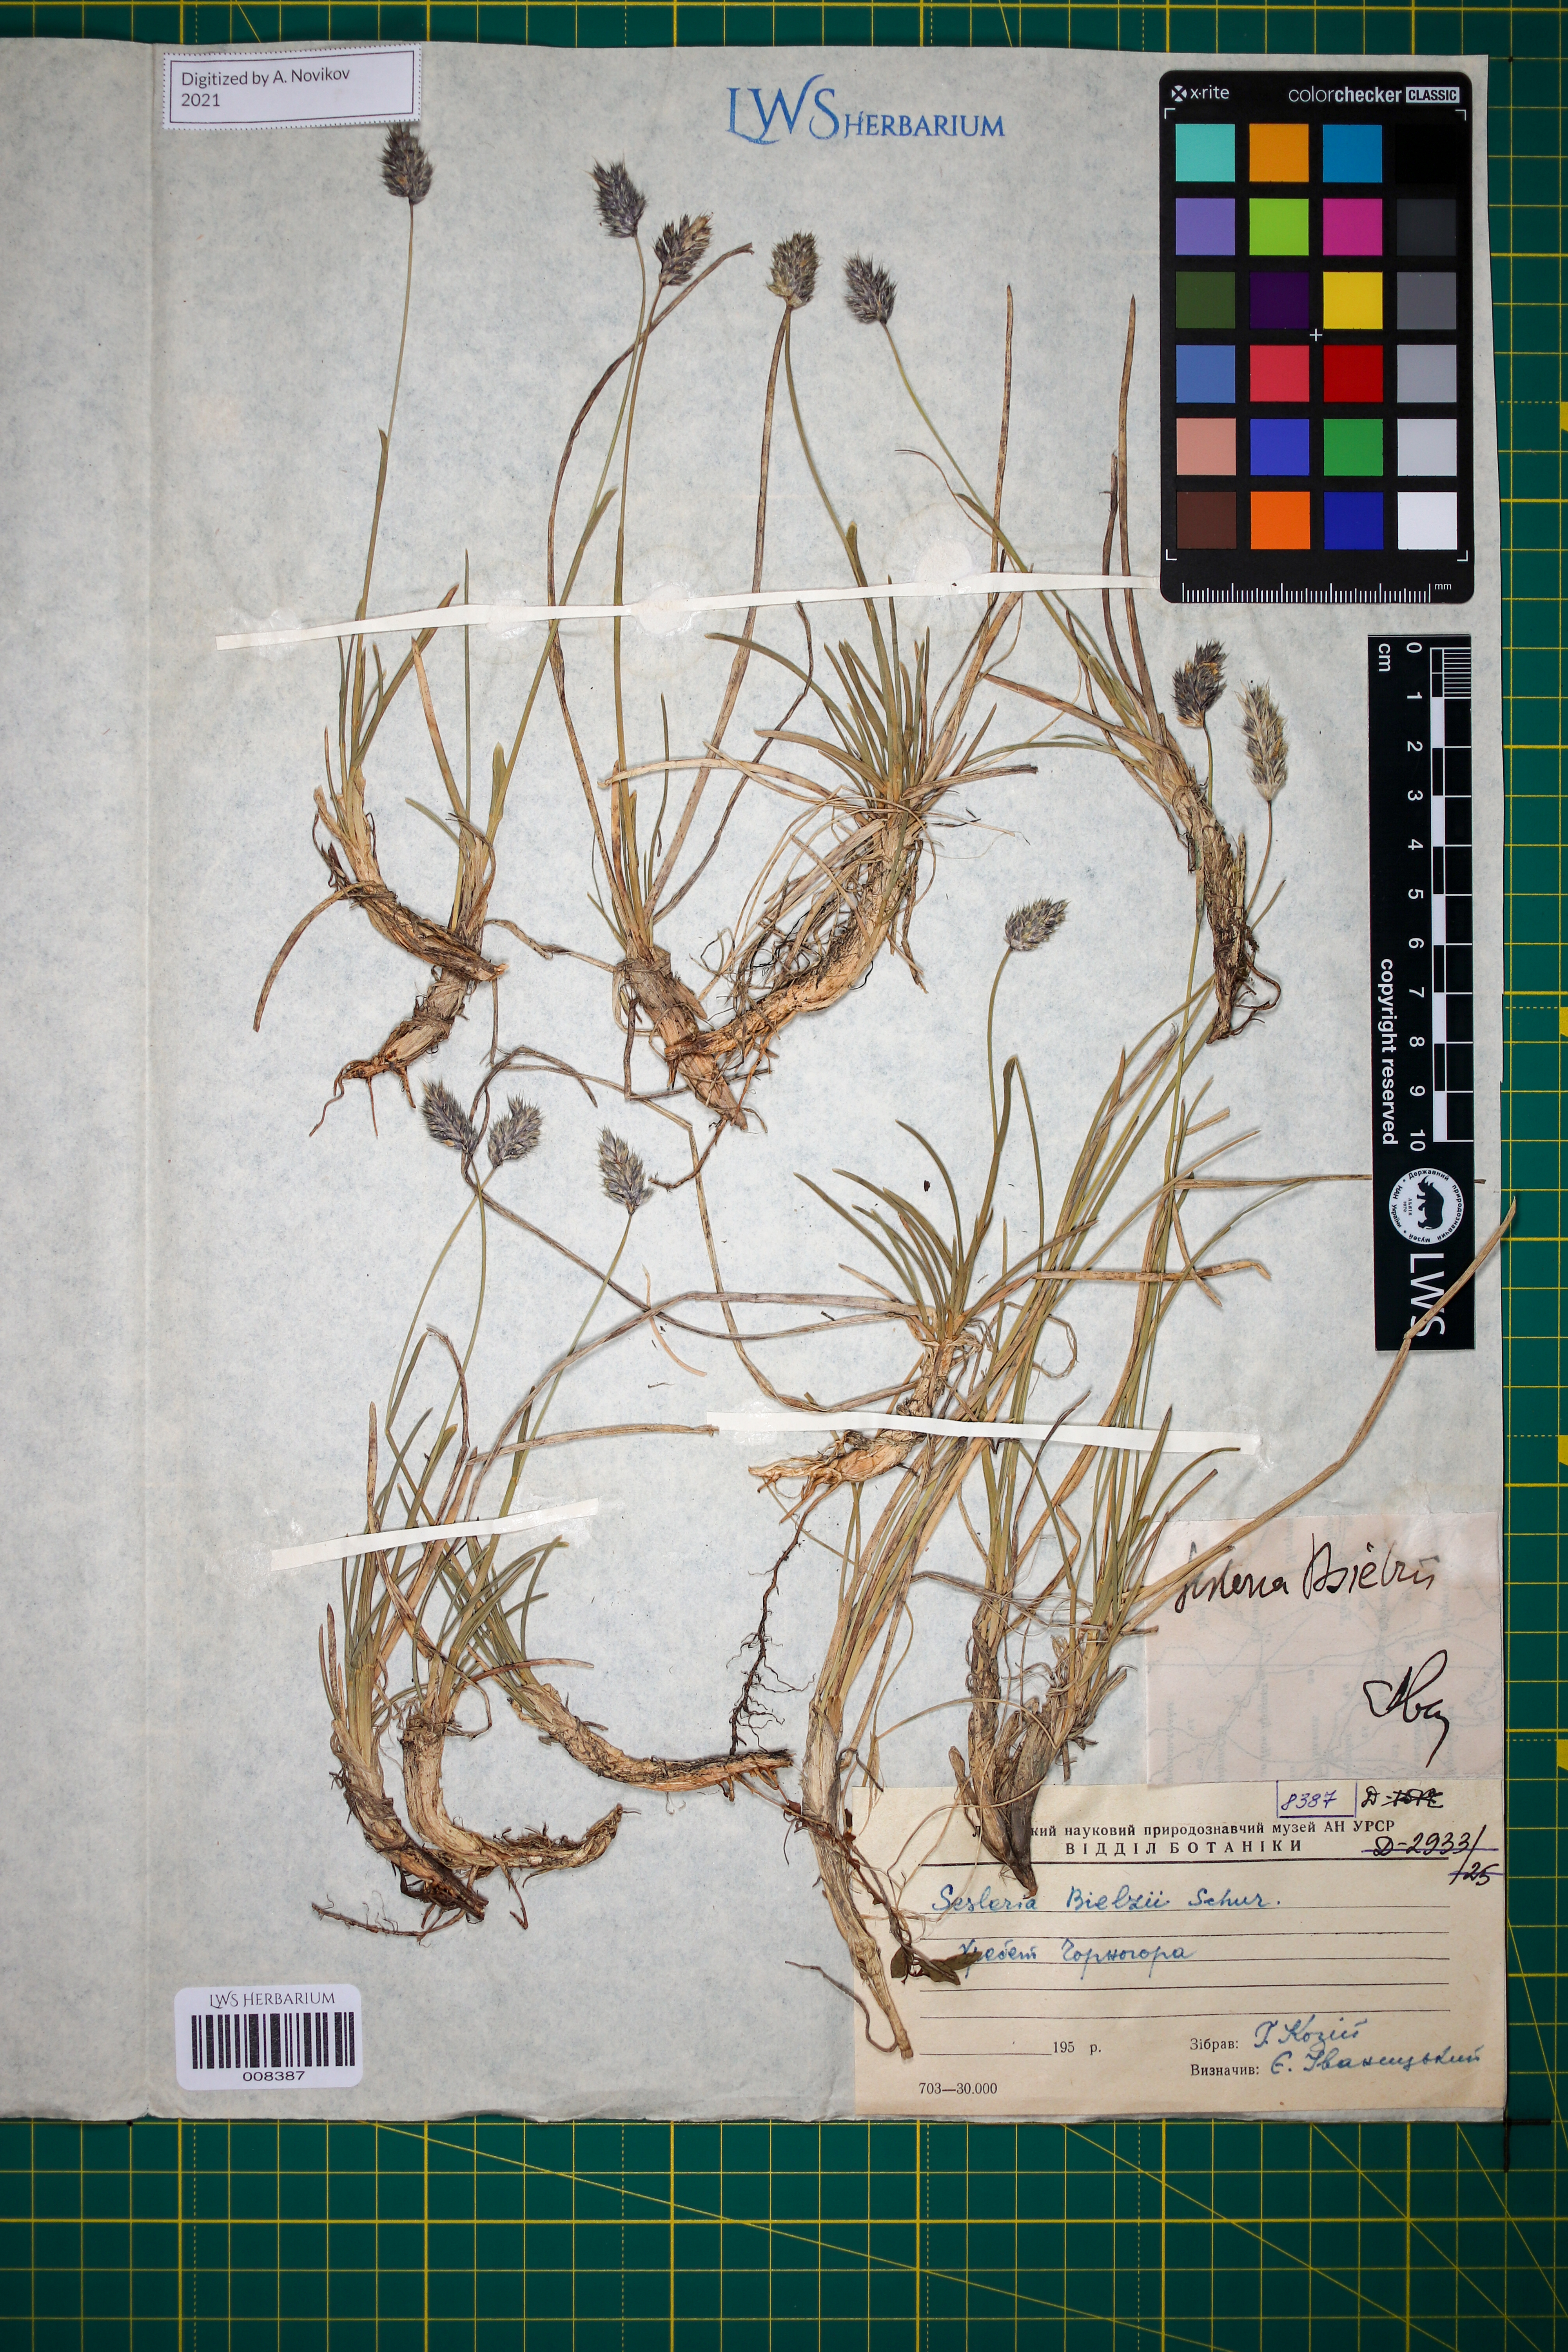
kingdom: Plantae
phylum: Tracheophyta
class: Liliopsida
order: Poales
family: Poaceae
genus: Sesleria
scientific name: Sesleria bielzii
